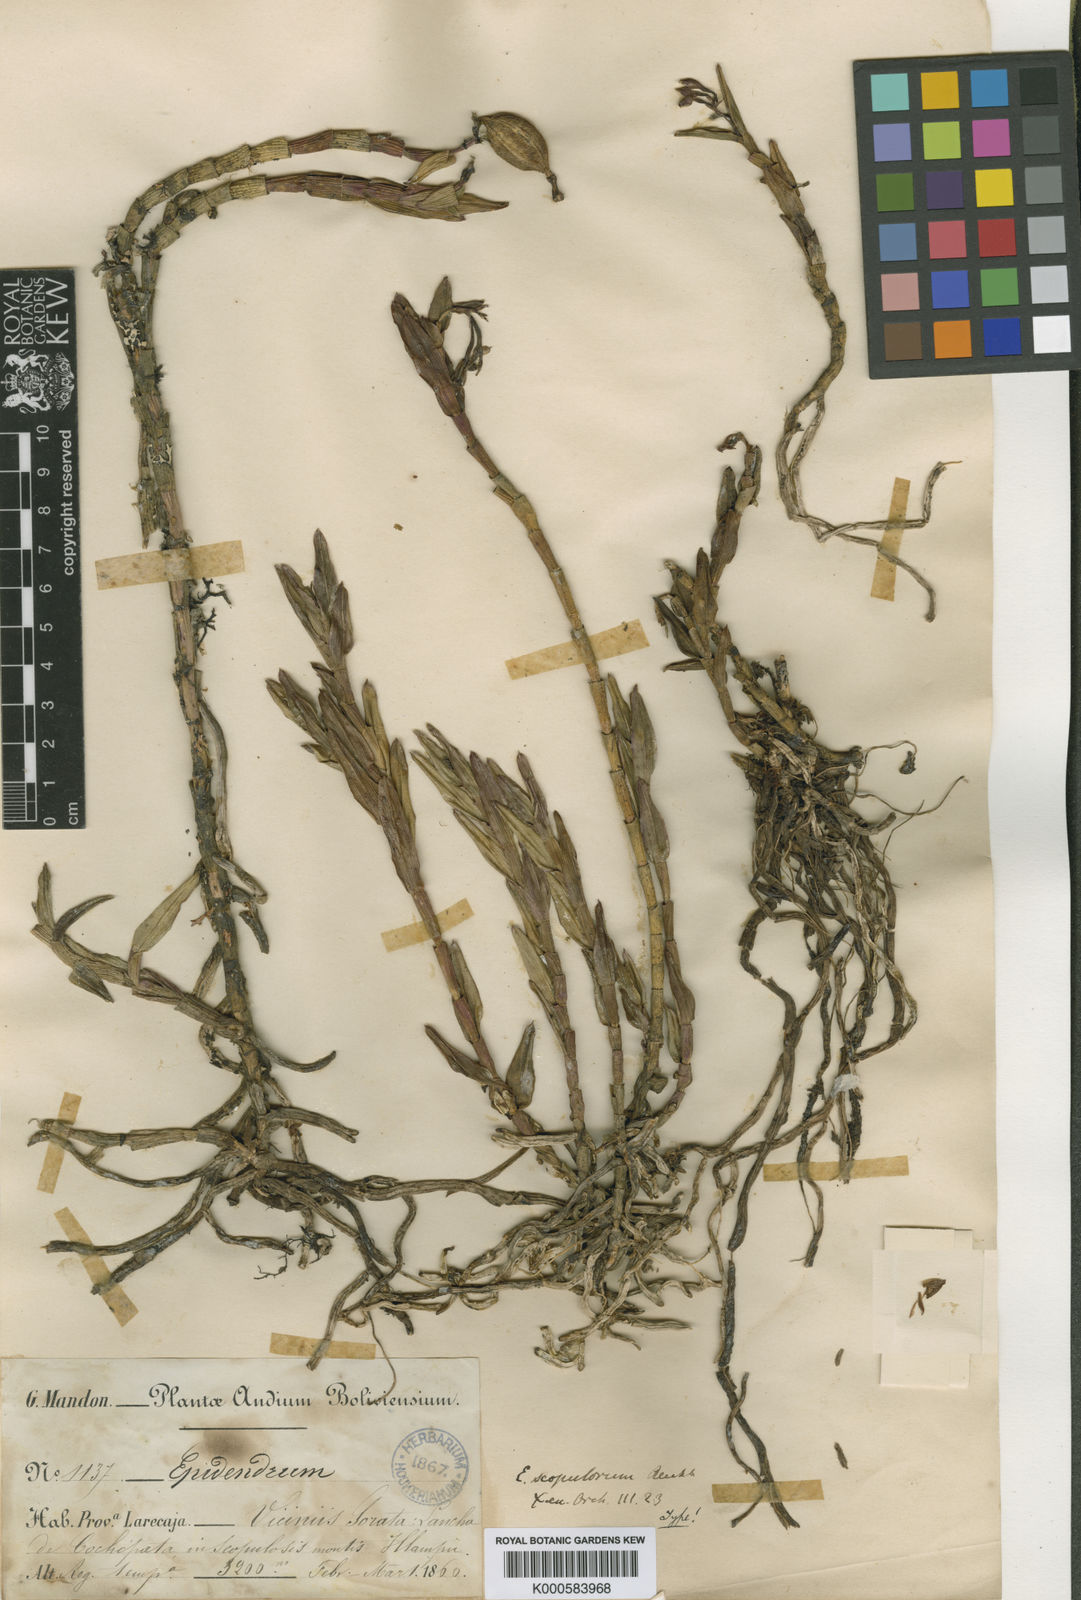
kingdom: Plantae
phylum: Tracheophyta
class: Liliopsida
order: Asparagales
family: Orchidaceae
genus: Epidendrum
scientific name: Epidendrum scopulorum
